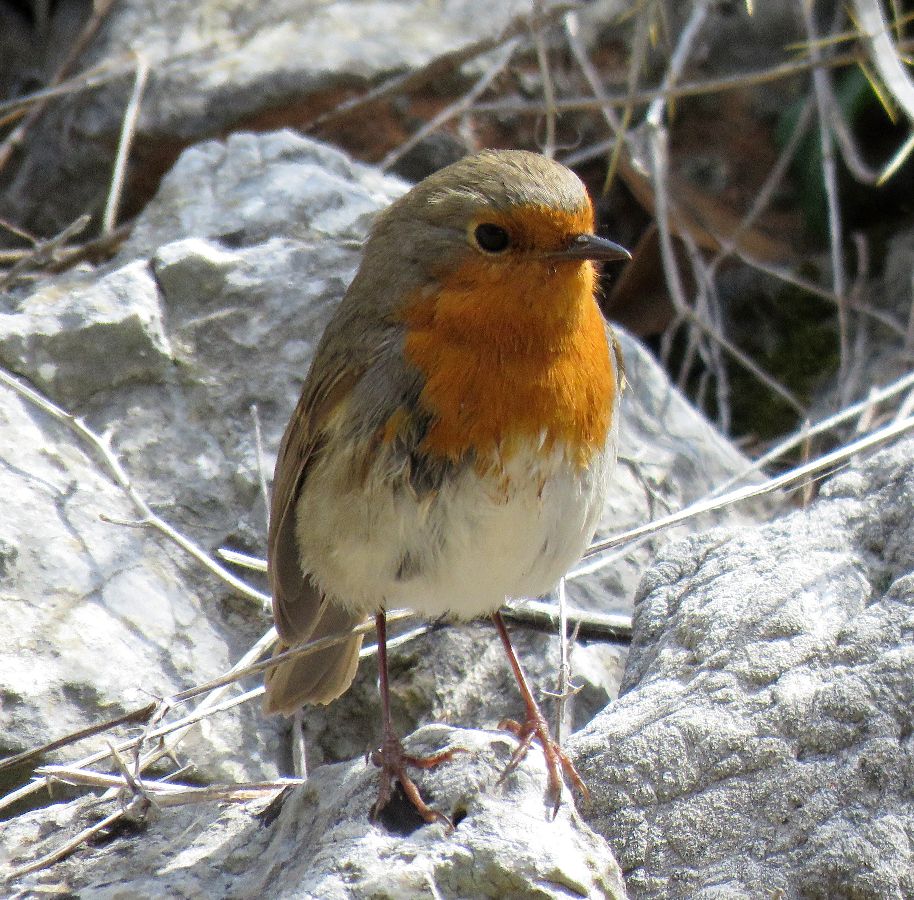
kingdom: Animalia
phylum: Chordata
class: Aves
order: Passeriformes
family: Muscicapidae
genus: Erithacus
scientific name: Erithacus rubecula
